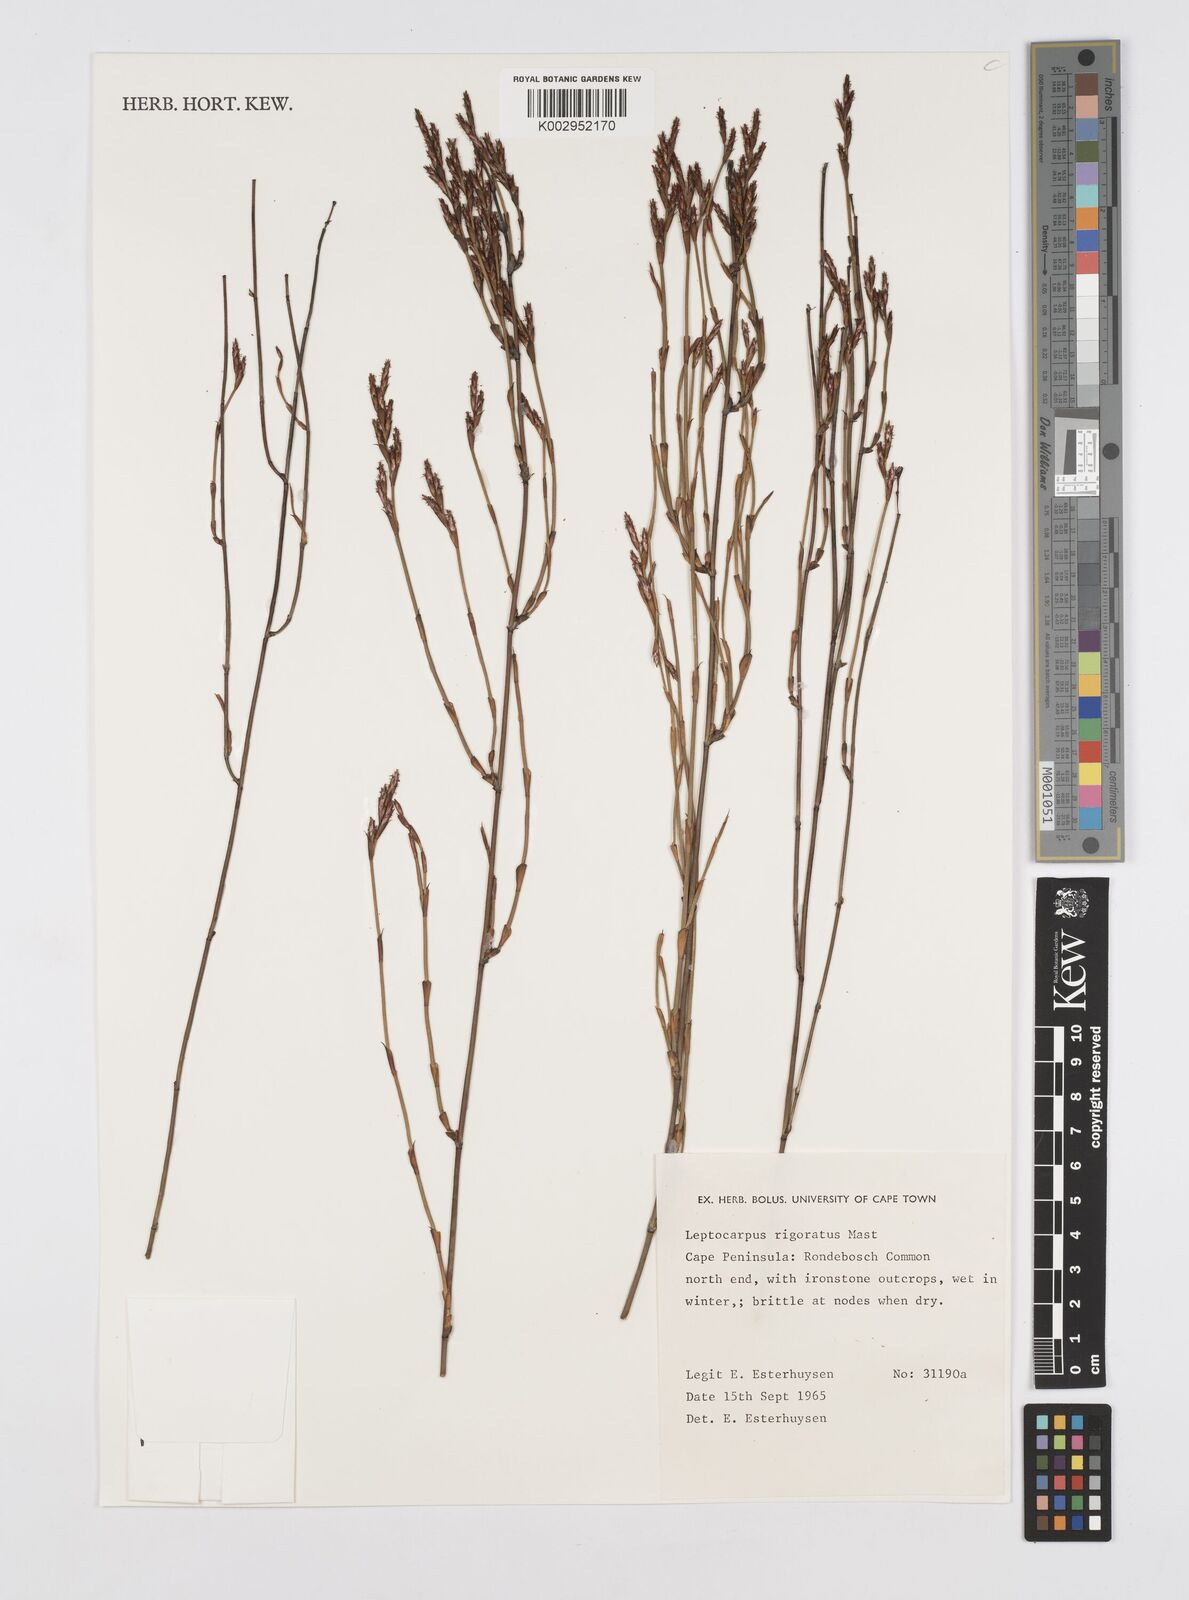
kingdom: Plantae
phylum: Tracheophyta
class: Liliopsida
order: Poales
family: Restionaceae
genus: Restio
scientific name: Restio rigoratus
